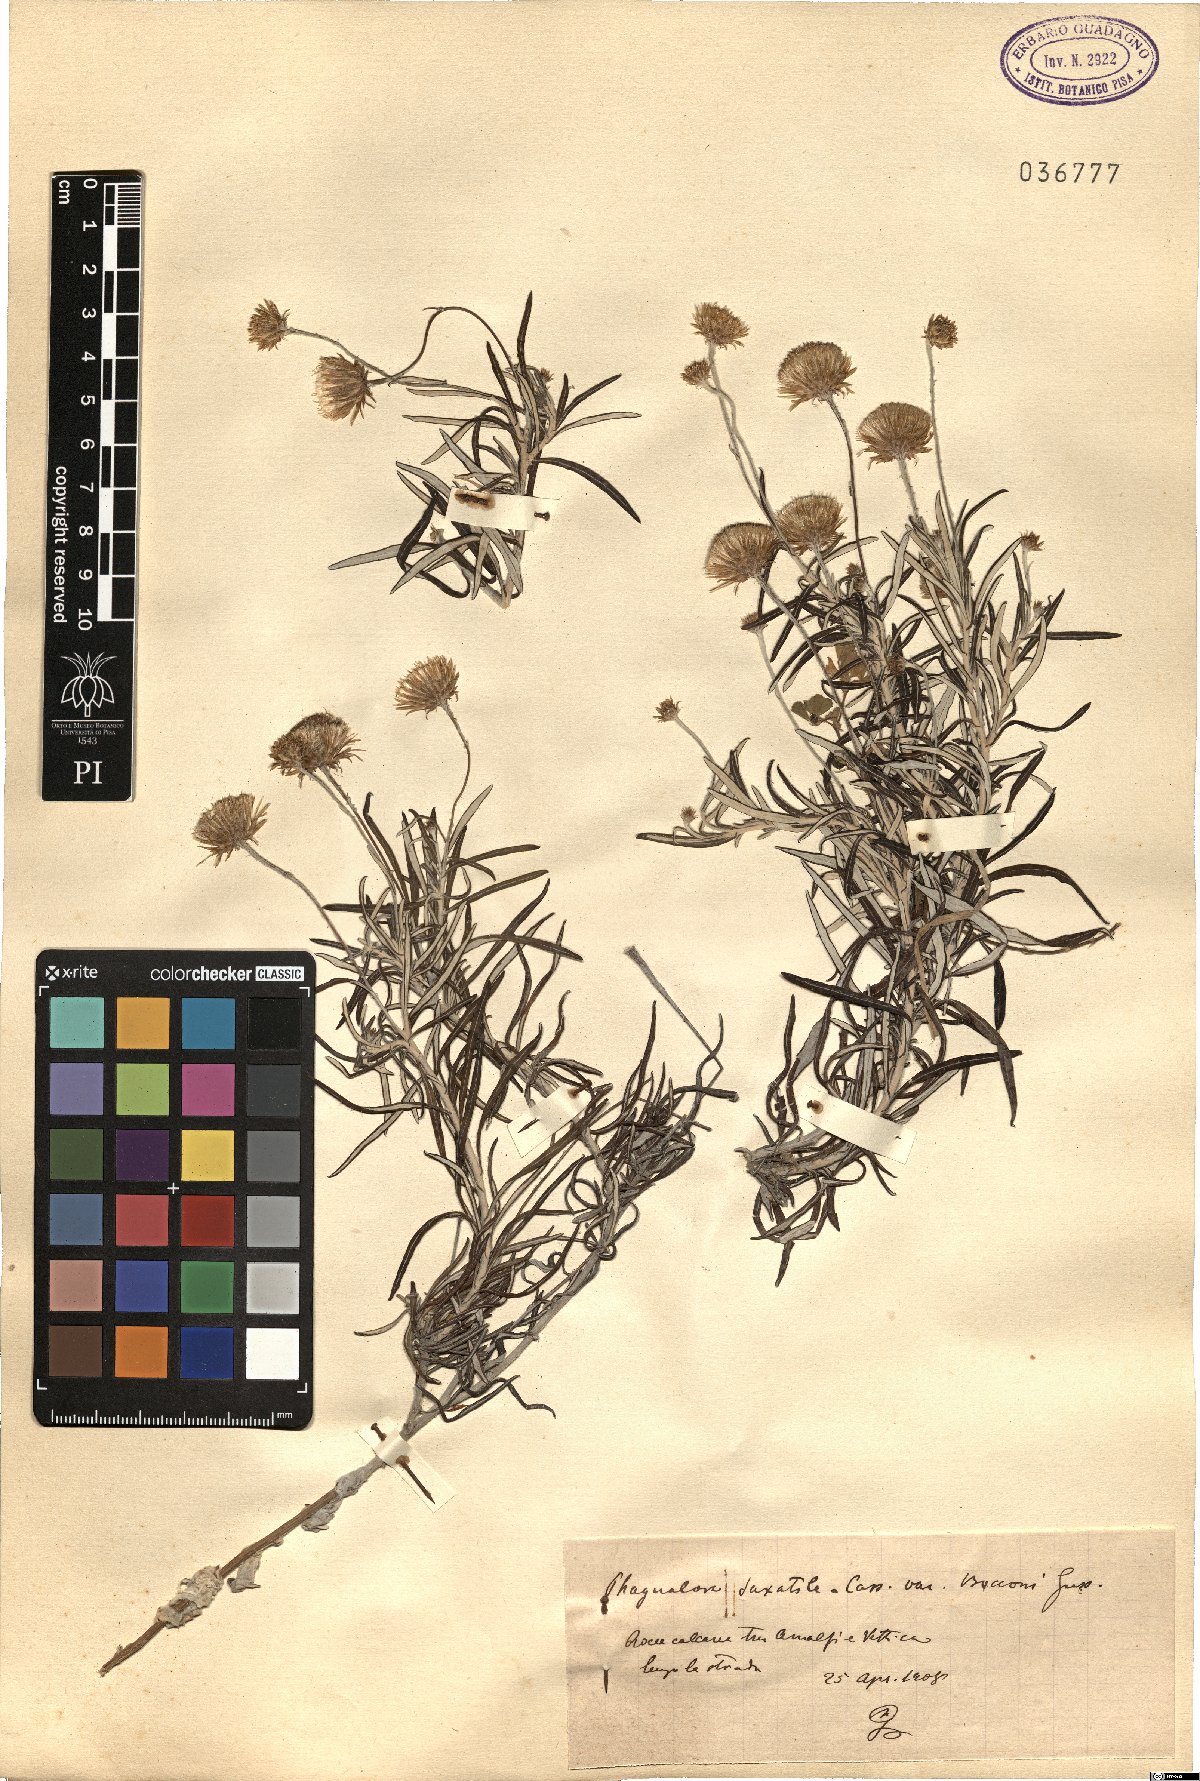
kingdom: Plantae
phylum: Tracheophyta
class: Magnoliopsida
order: Asterales
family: Asteraceae
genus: Phagnalon
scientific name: Phagnalon saxatile
